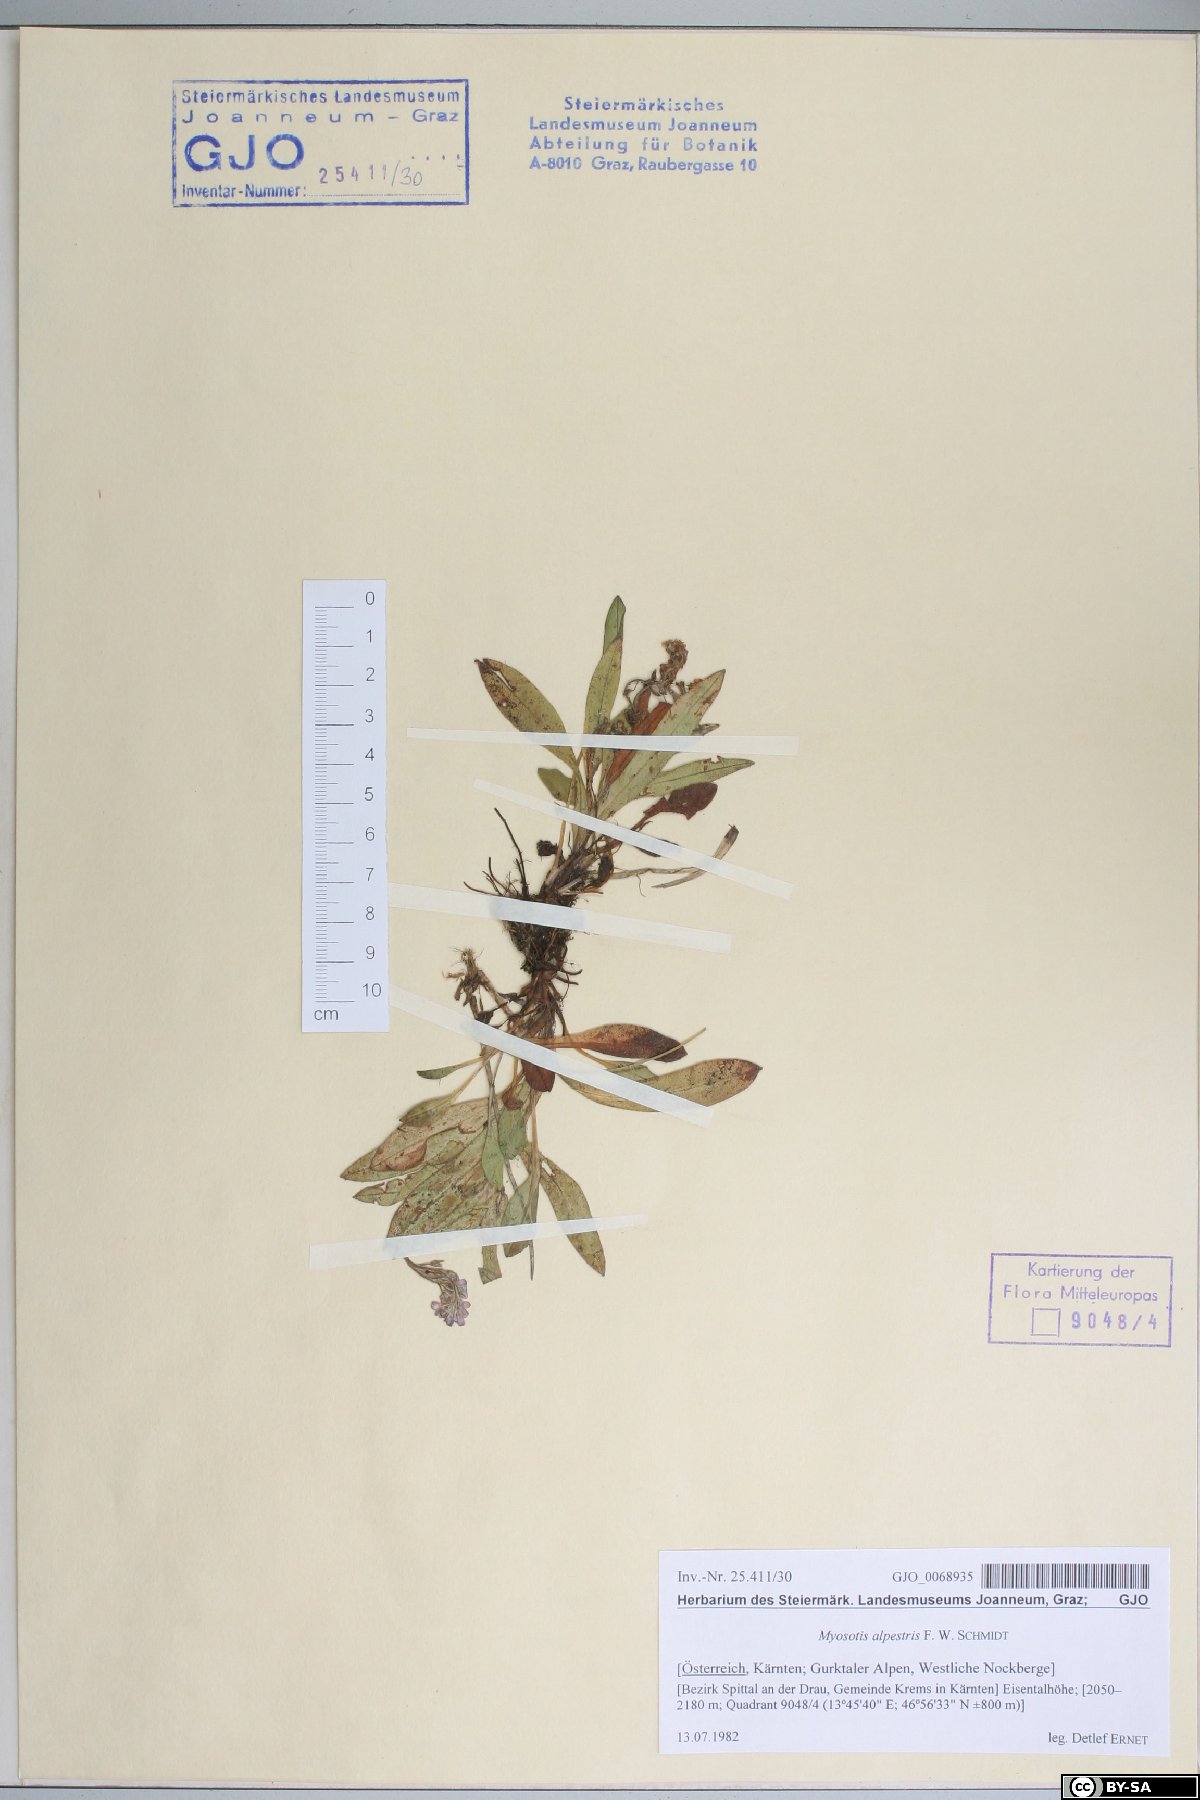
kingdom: Plantae
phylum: Tracheophyta
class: Magnoliopsida
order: Boraginales
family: Boraginaceae
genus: Myosotis
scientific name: Myosotis alpestris
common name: Alpine forget-me-not
